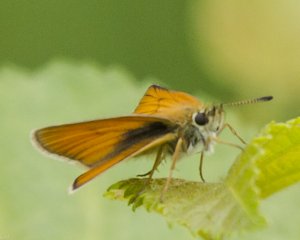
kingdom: Animalia
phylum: Arthropoda
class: Insecta
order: Lepidoptera
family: Hesperiidae
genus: Thymelicus
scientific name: Thymelicus lineola
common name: European Skipper
